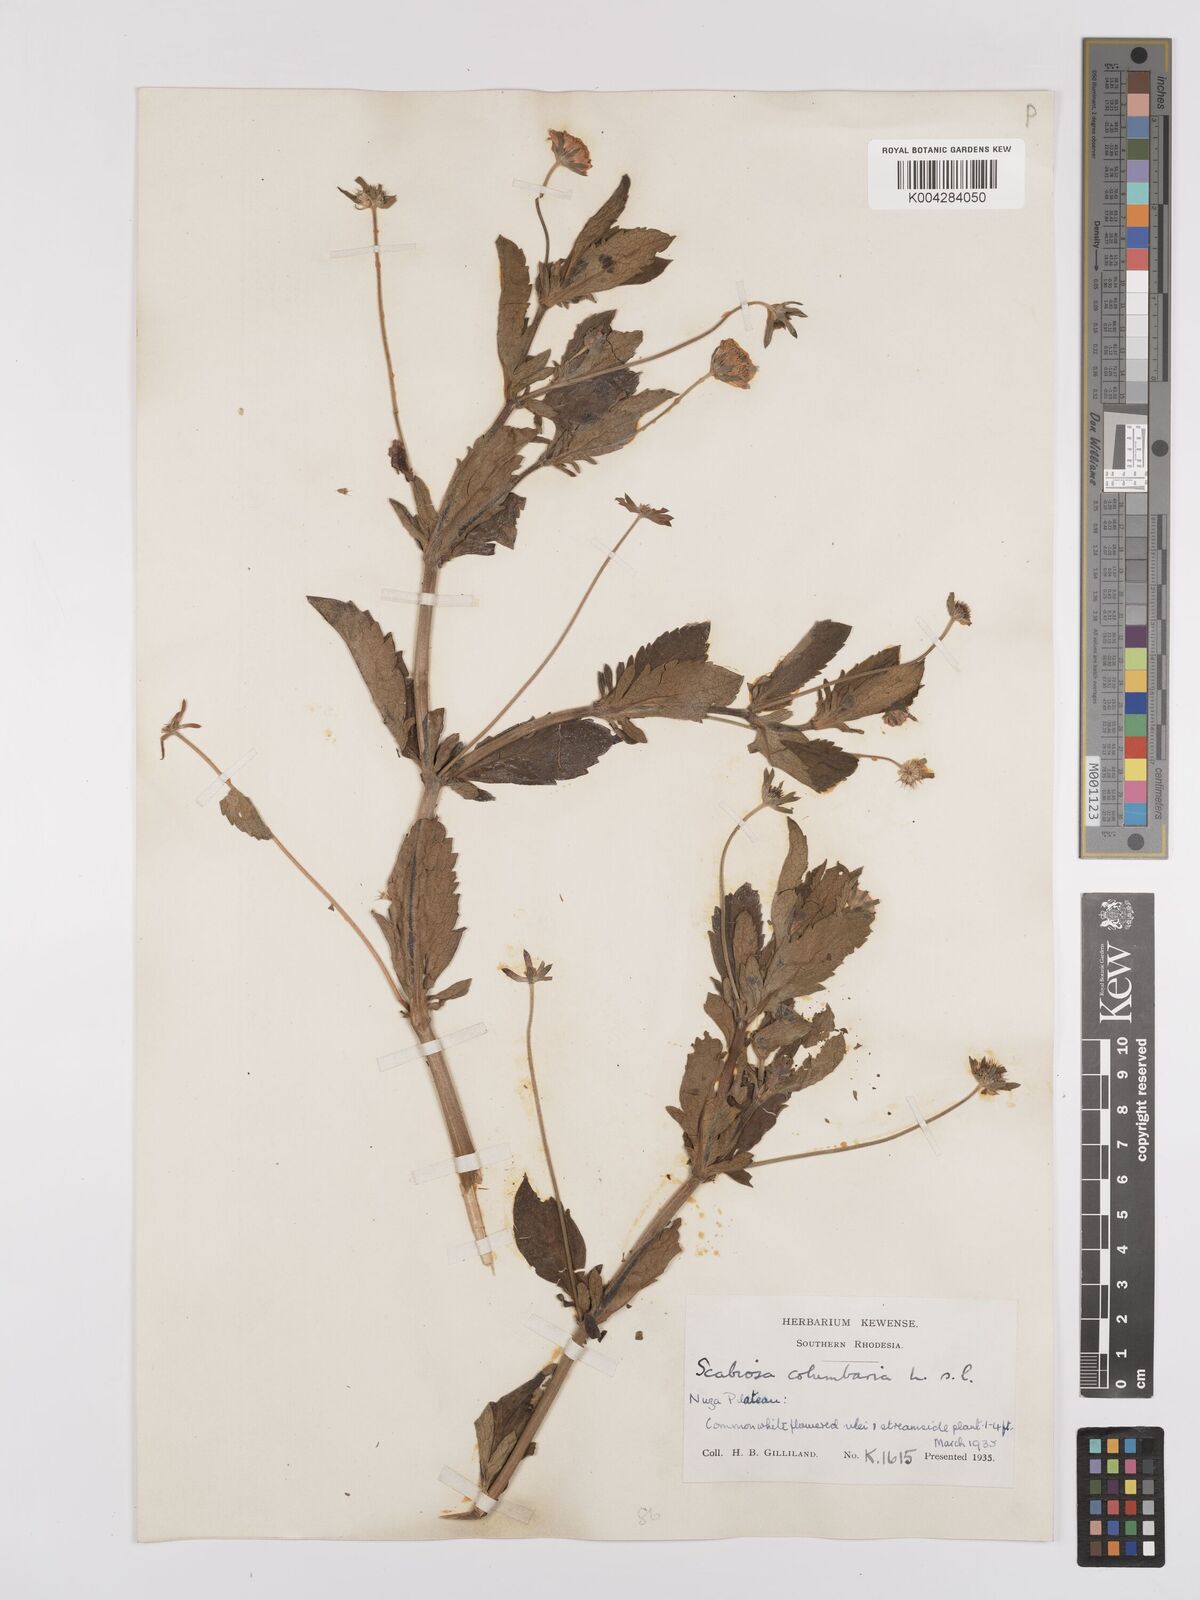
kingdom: Plantae
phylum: Tracheophyta
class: Magnoliopsida
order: Dipsacales
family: Caprifoliaceae
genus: Scabiosa
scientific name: Scabiosa drakensbergensis
